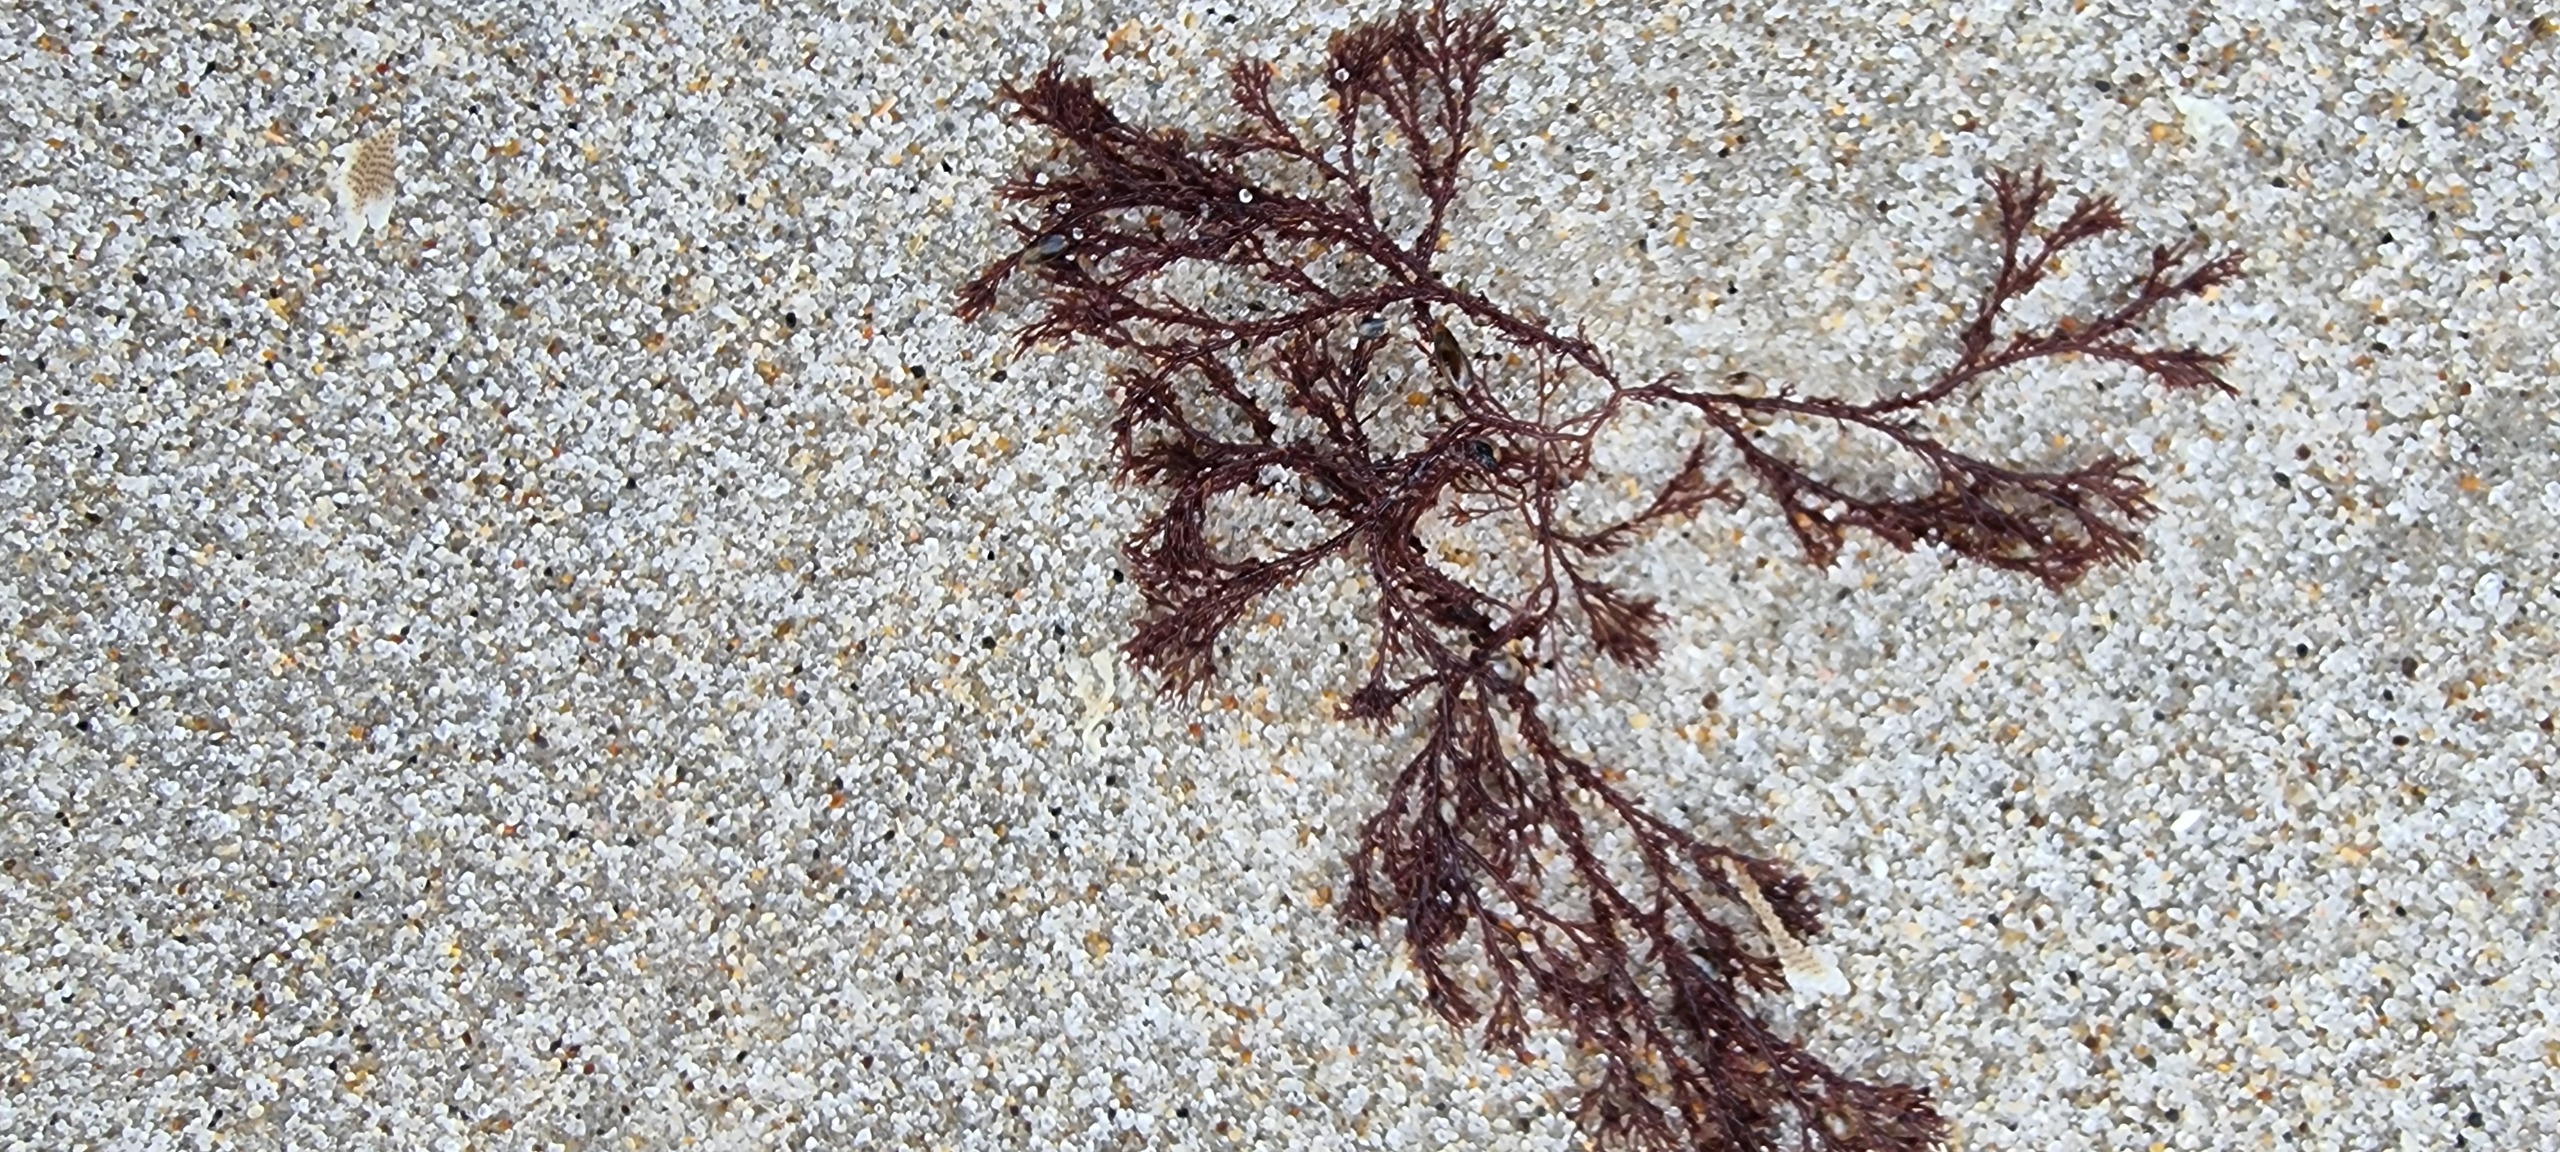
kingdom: Plantae
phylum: Rhodophyta
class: Florideophyceae
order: Ceramiales
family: Ceramiaceae
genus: Ceramium
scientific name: Ceramium
